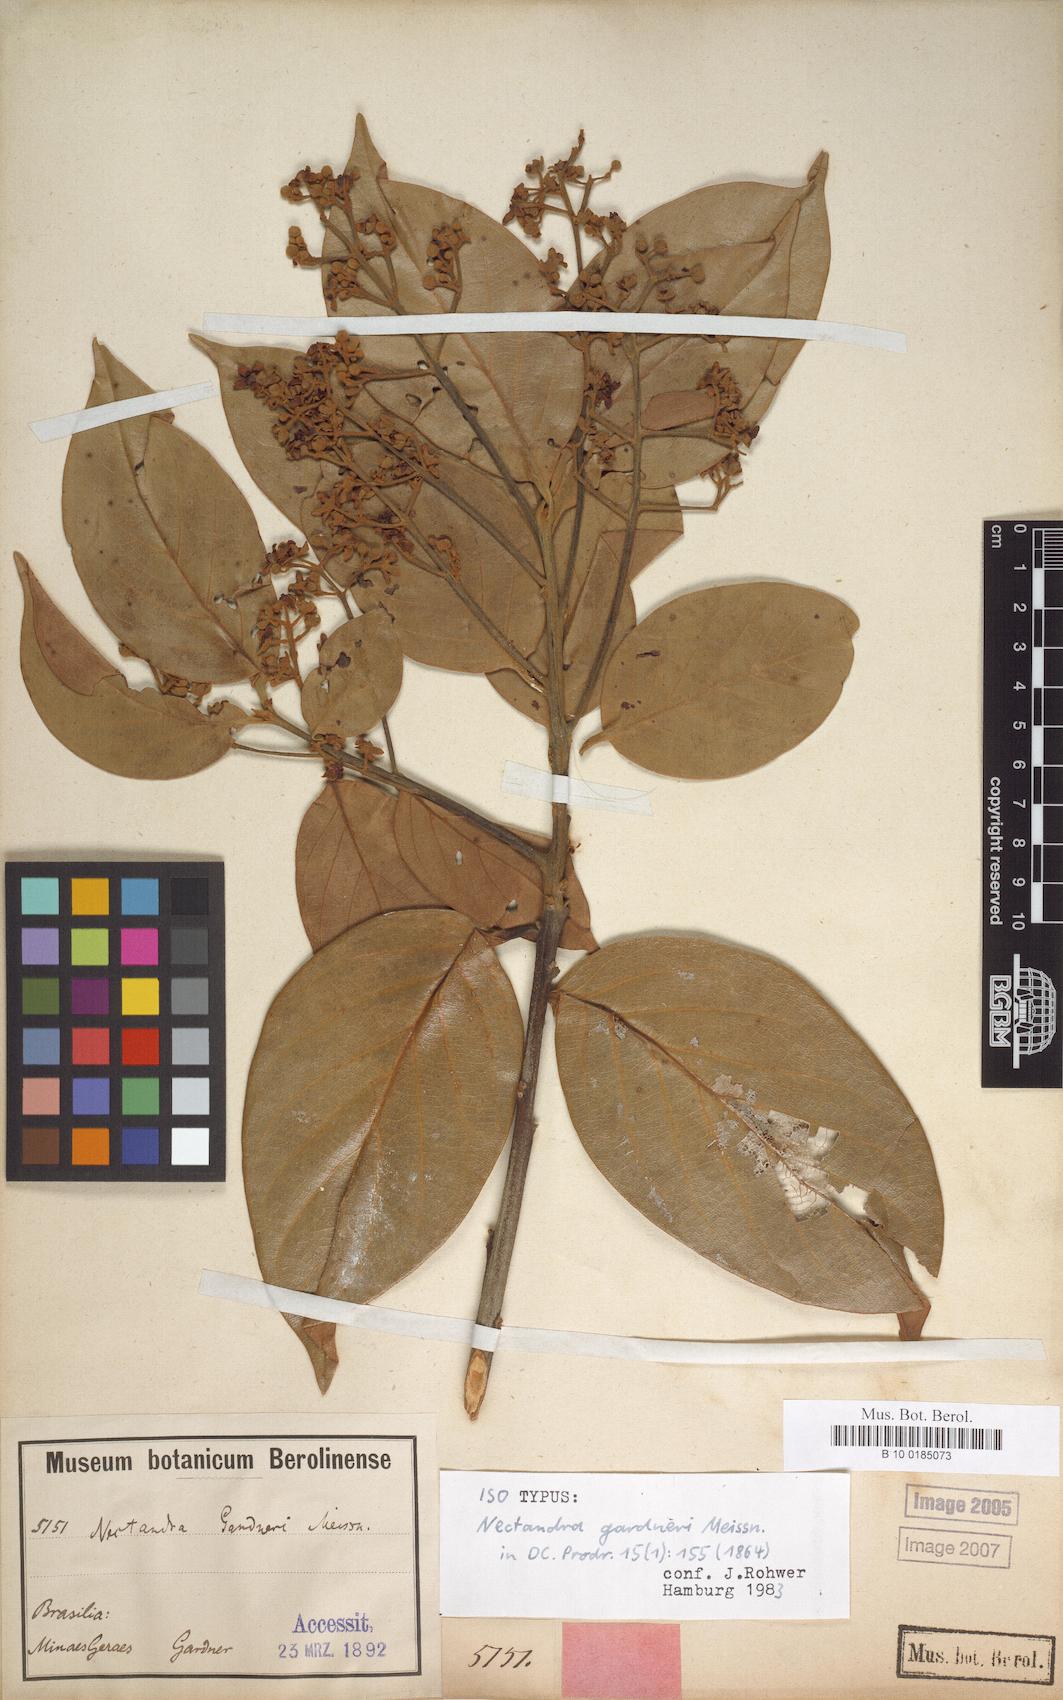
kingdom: Plantae
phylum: Tracheophyta
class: Magnoliopsida
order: Laurales
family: Lauraceae
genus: Nectandra
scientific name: Nectandra gardneri
